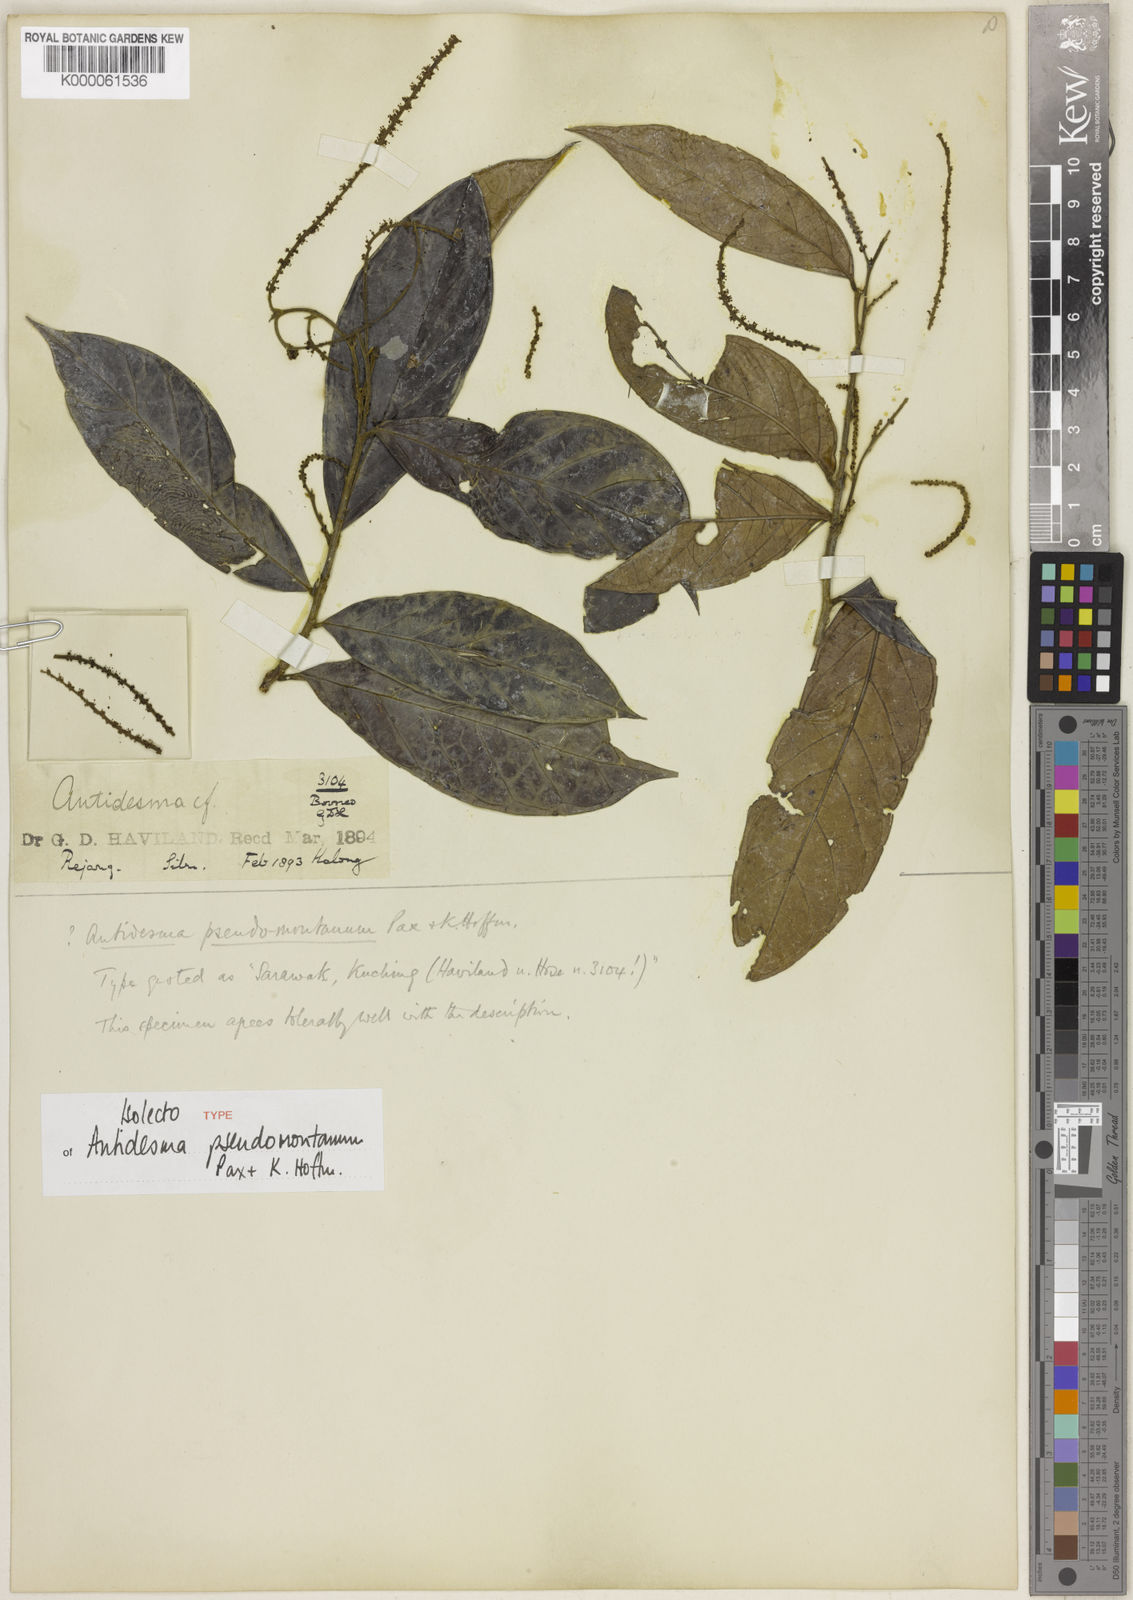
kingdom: Plantae
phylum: Tracheophyta
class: Magnoliopsida
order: Malpighiales
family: Phyllanthaceae
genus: Antidesma
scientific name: Antidesma montanum
